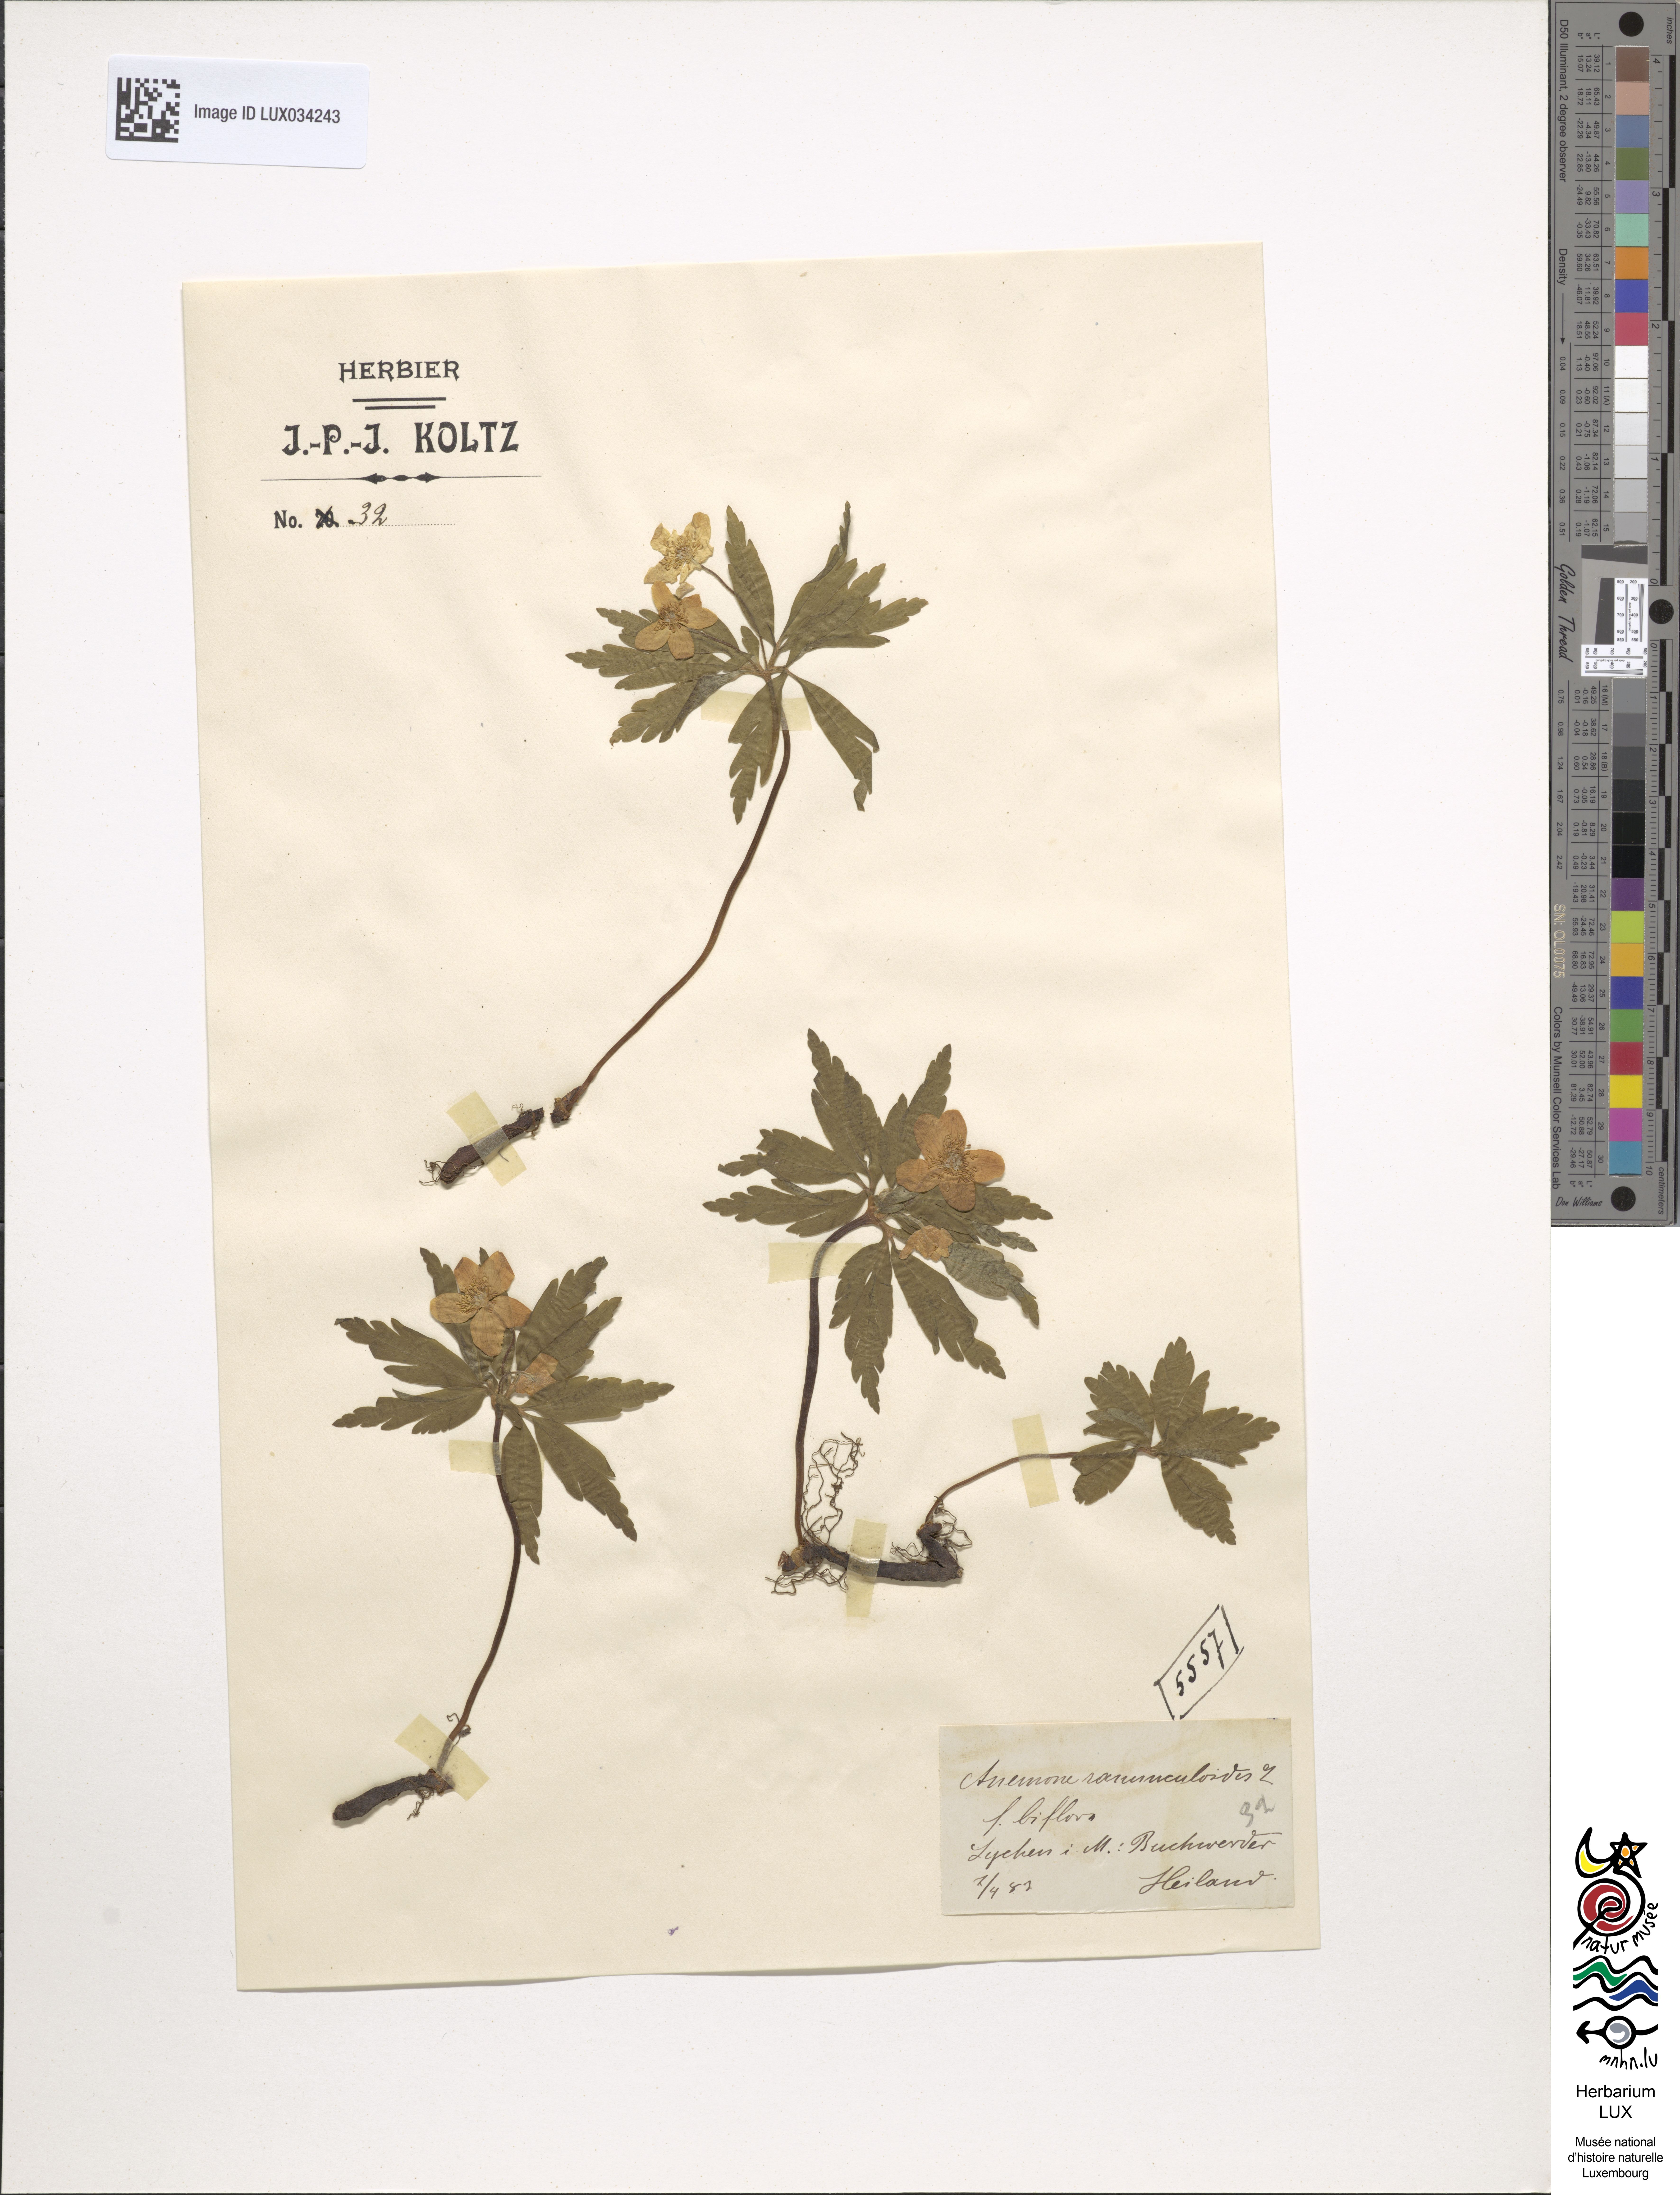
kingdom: Plantae
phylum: Tracheophyta
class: Magnoliopsida
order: Ranunculales
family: Ranunculaceae
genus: Anemone
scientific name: Anemone ranunculoides
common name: Yellow anemone
